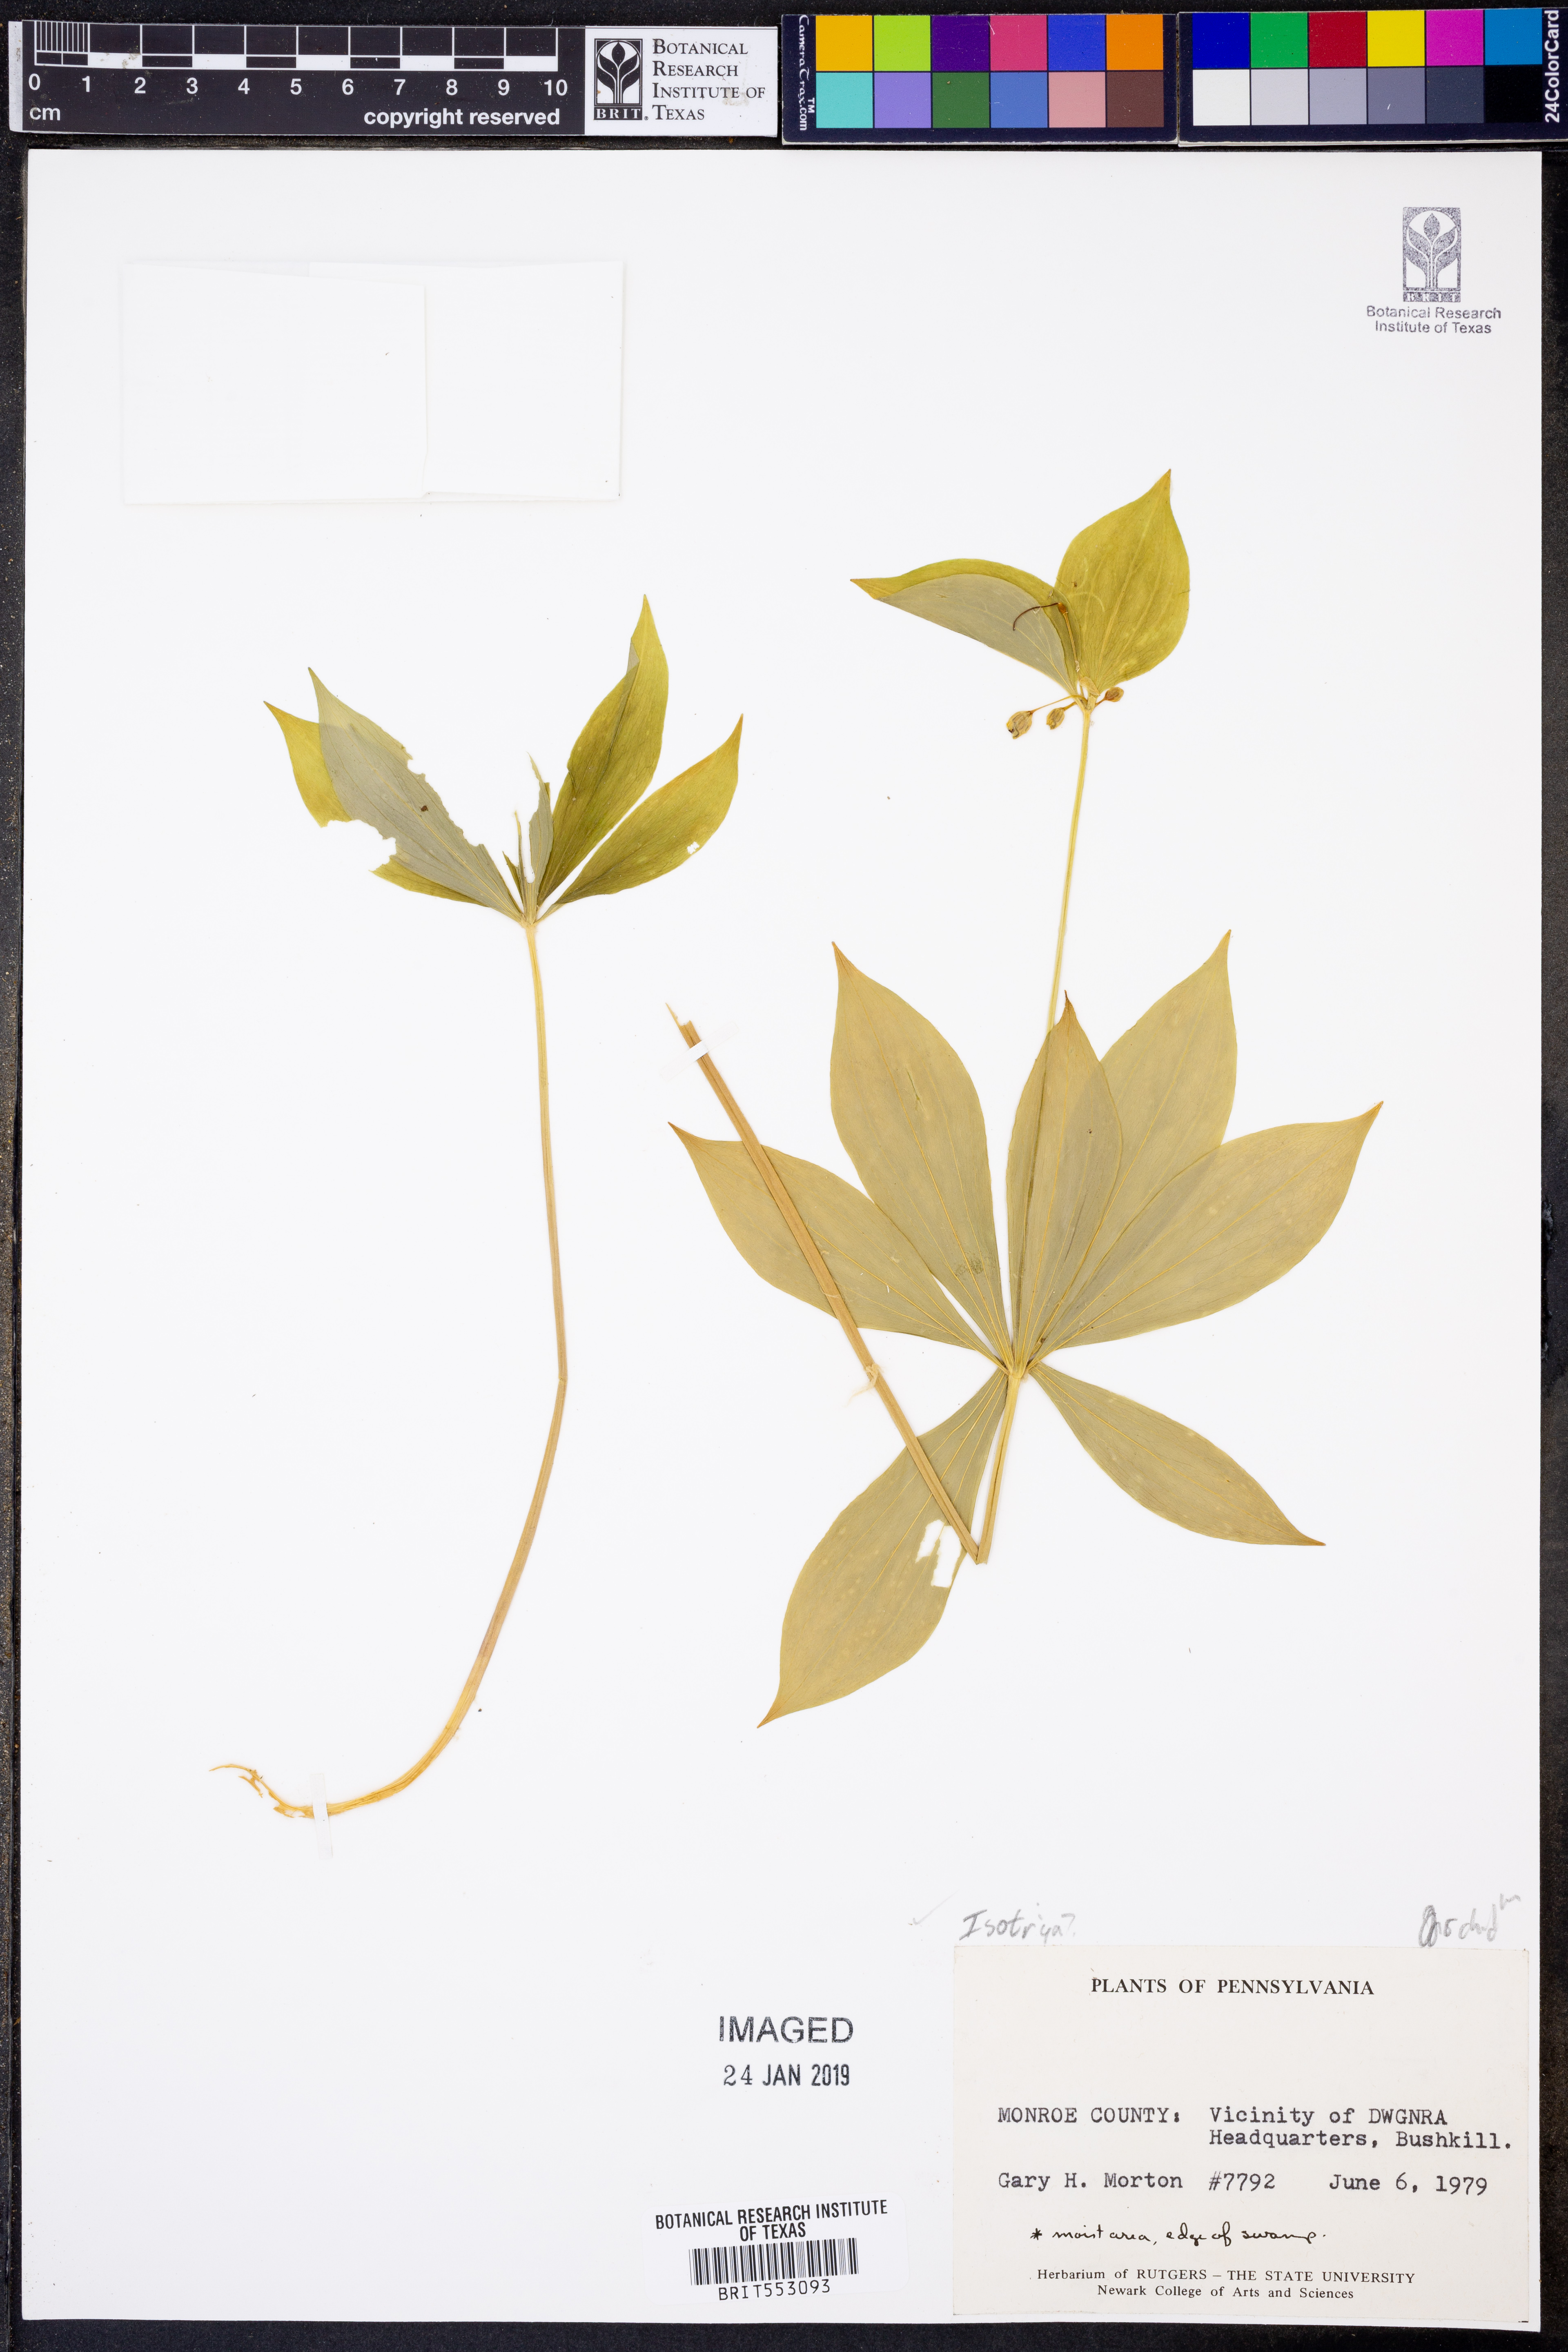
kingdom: Plantae
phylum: Tracheophyta
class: Liliopsida
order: Asparagales
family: Orchidaceae
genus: Isotria
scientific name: Isotria
